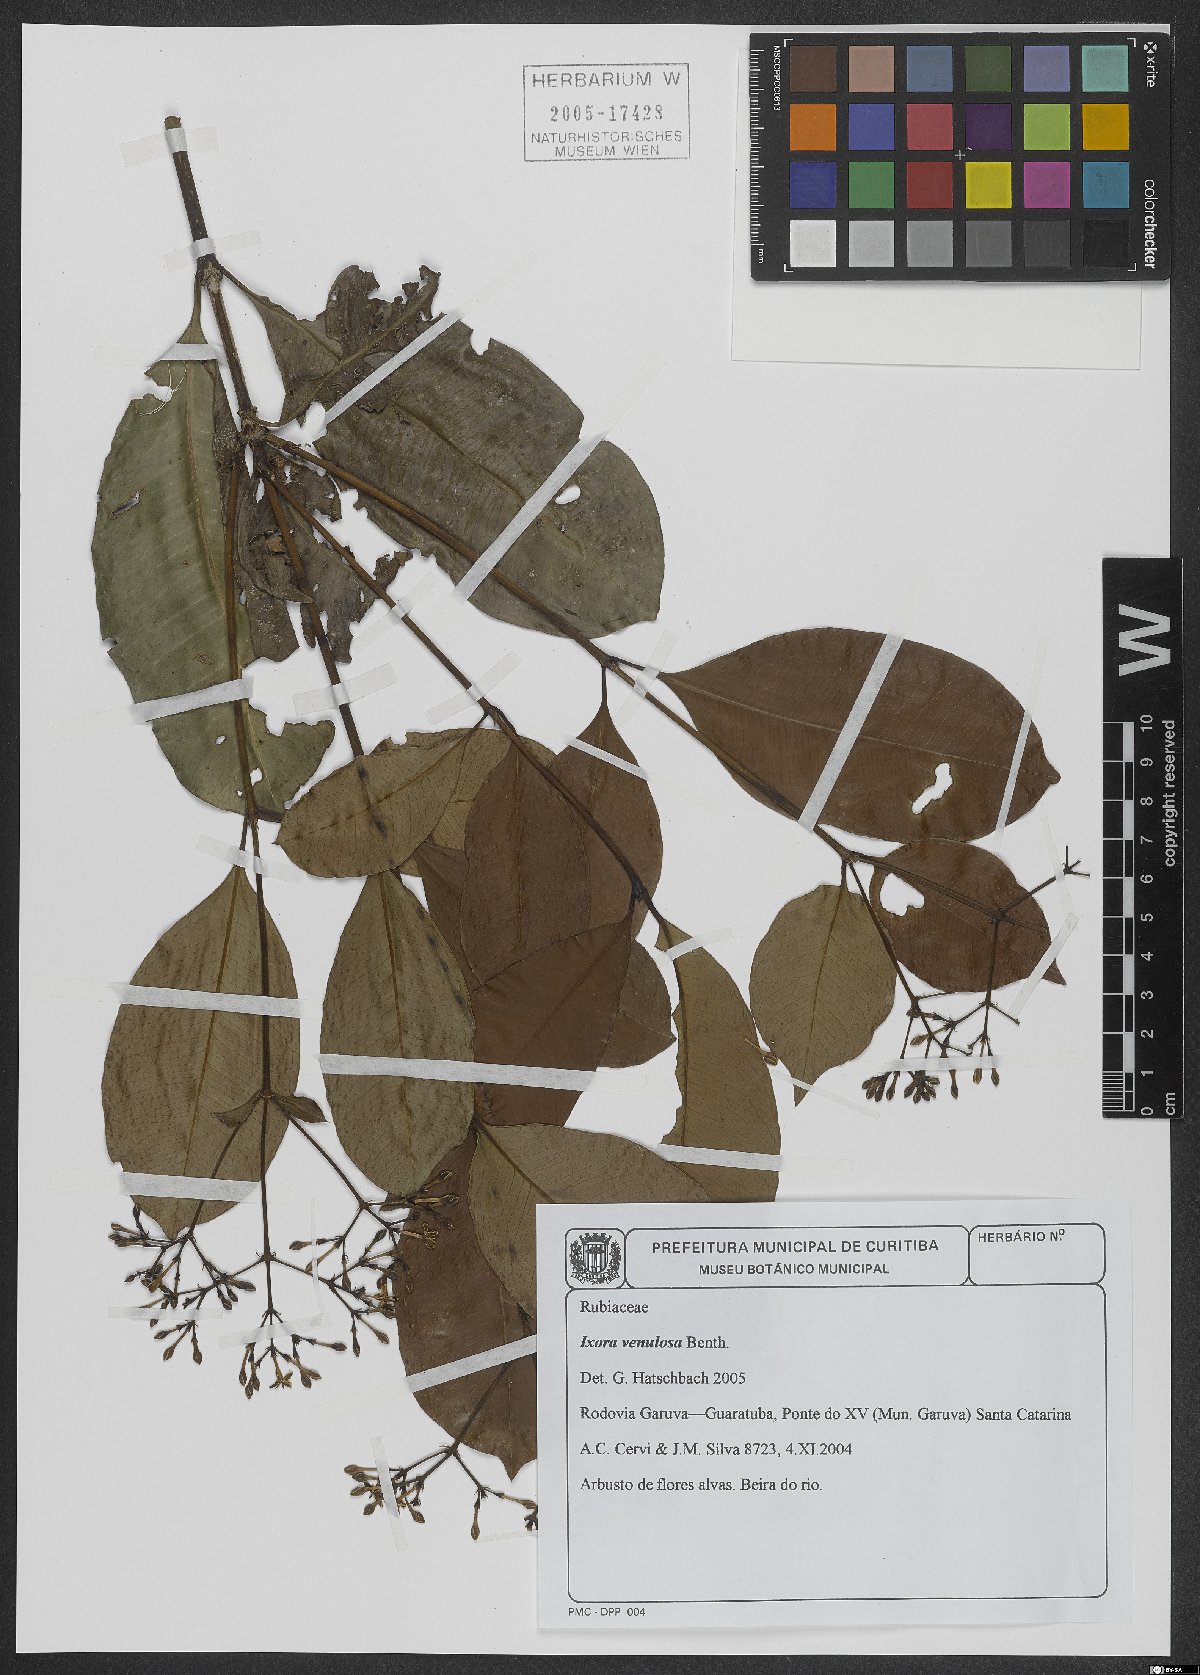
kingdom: Plantae
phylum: Tracheophyta
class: Magnoliopsida
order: Gentianales
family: Rubiaceae
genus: Ixora
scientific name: Ixora venulosa
